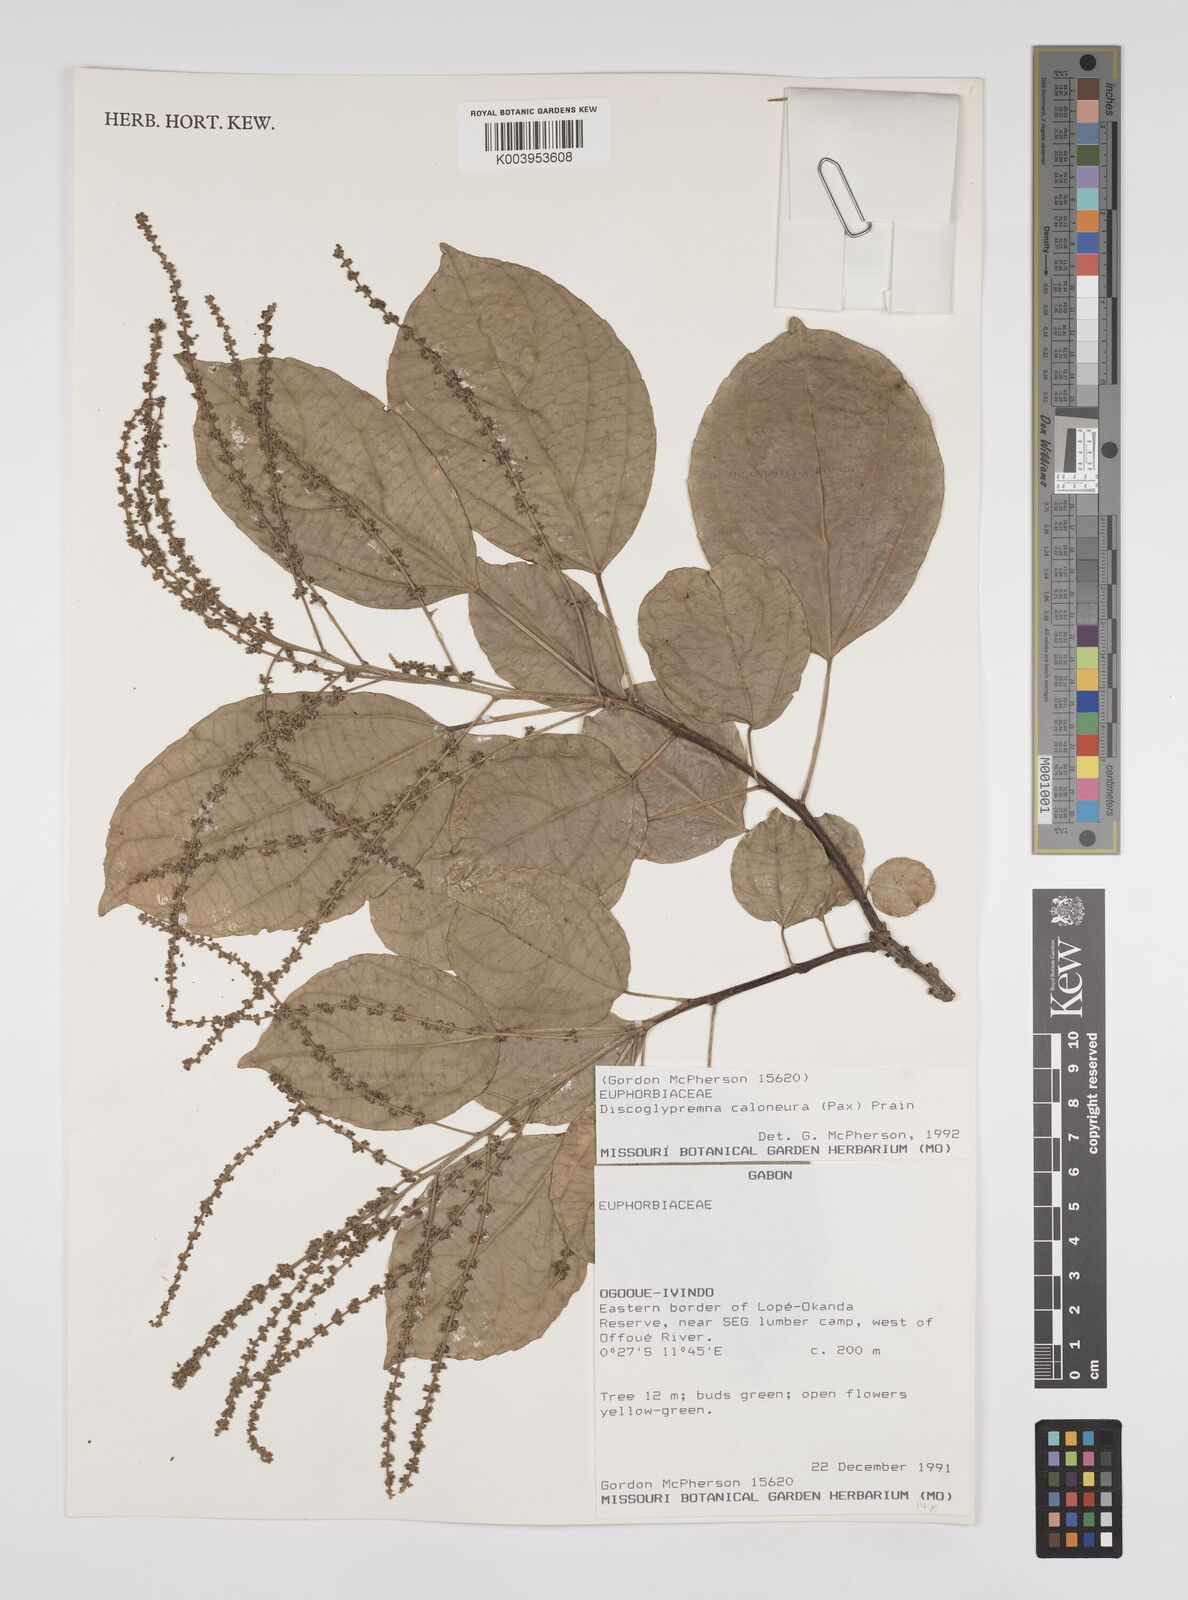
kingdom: Plantae
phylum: Tracheophyta
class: Magnoliopsida
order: Malpighiales
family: Euphorbiaceae
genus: Discoglypremna
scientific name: Discoglypremna caloneura
